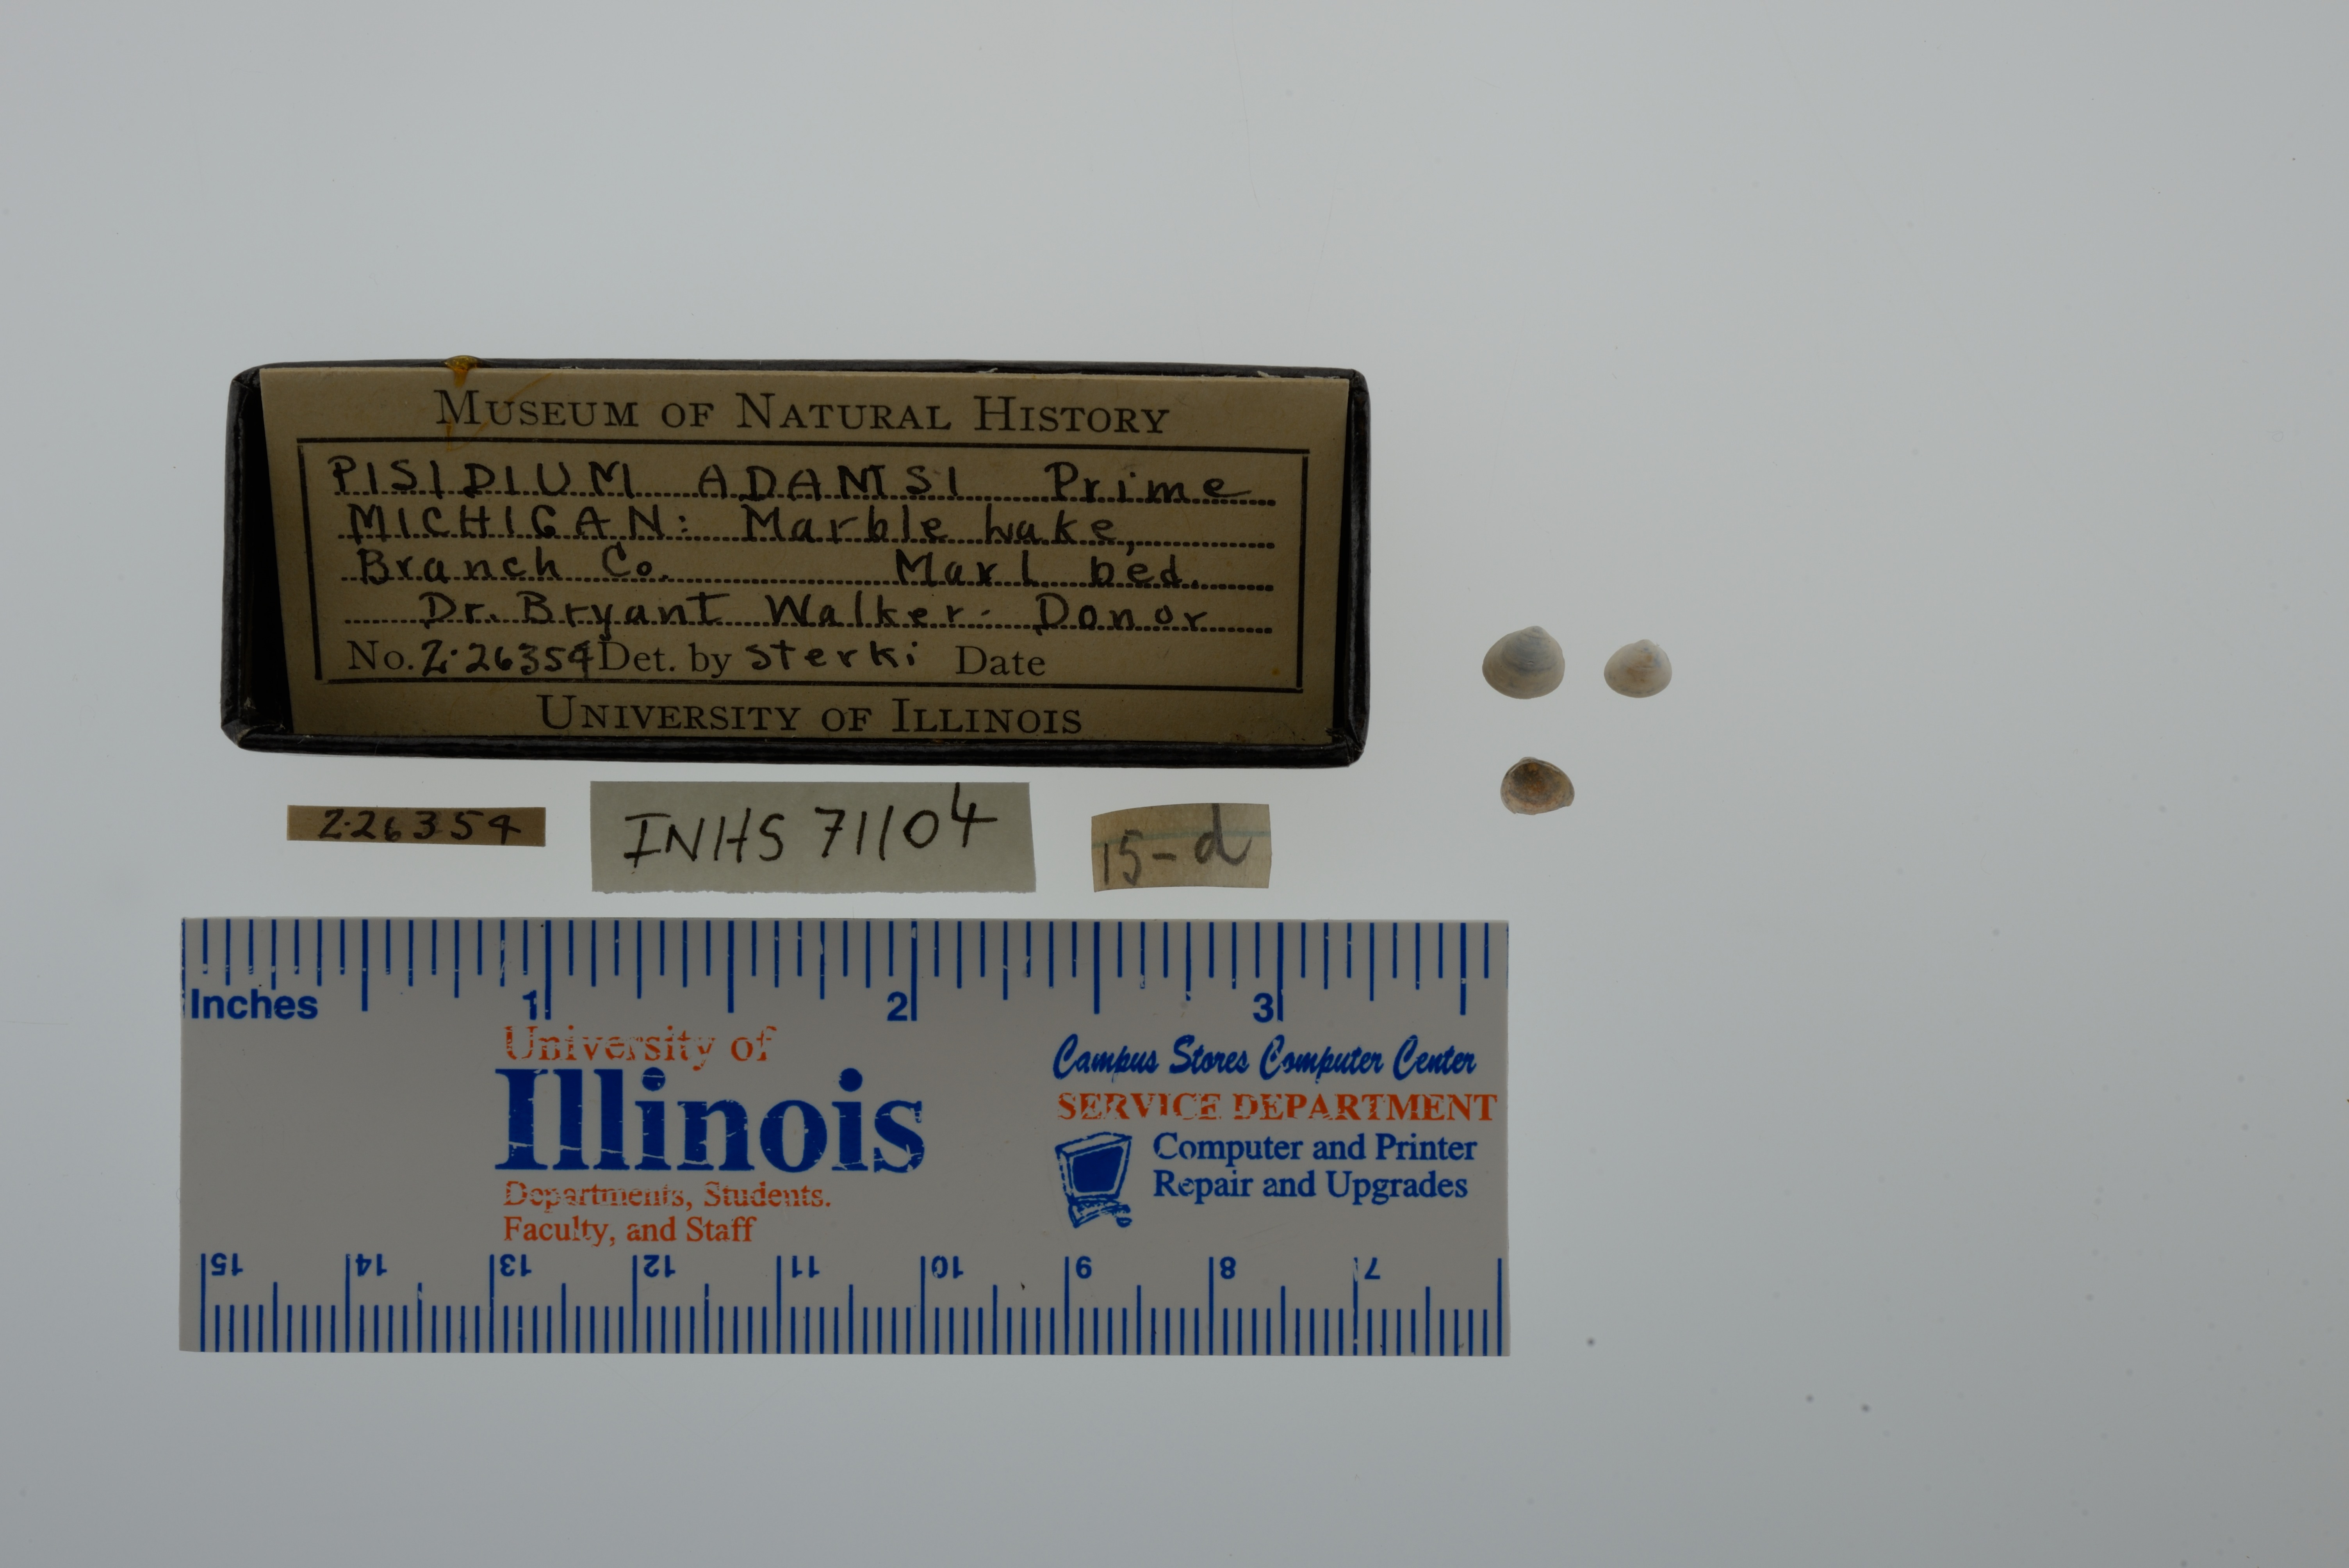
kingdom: Animalia
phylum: Mollusca
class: Bivalvia
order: Sphaeriida
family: Sphaeriidae
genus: Euglesa
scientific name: Euglesa adamsii
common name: Adam peaclam
